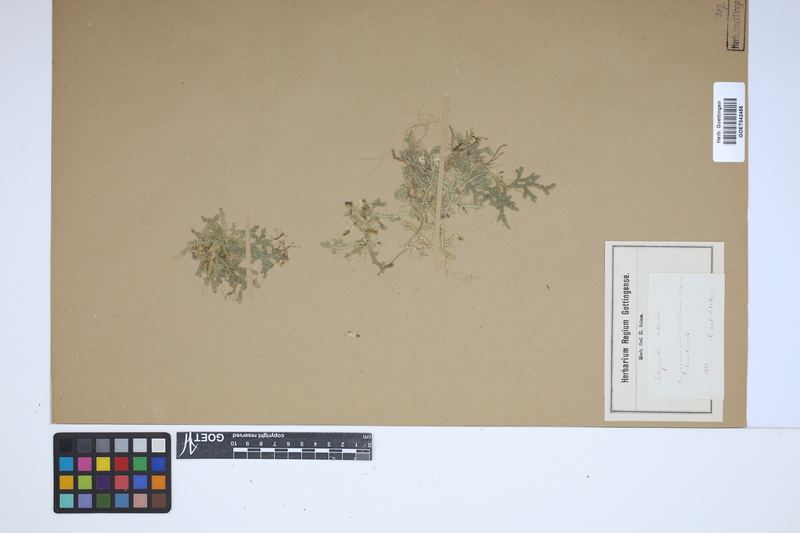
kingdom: Plantae
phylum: Tracheophyta
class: Lycopodiopsida
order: Selaginellales
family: Selaginellaceae
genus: Selaginella
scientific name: Selaginella helvetica
